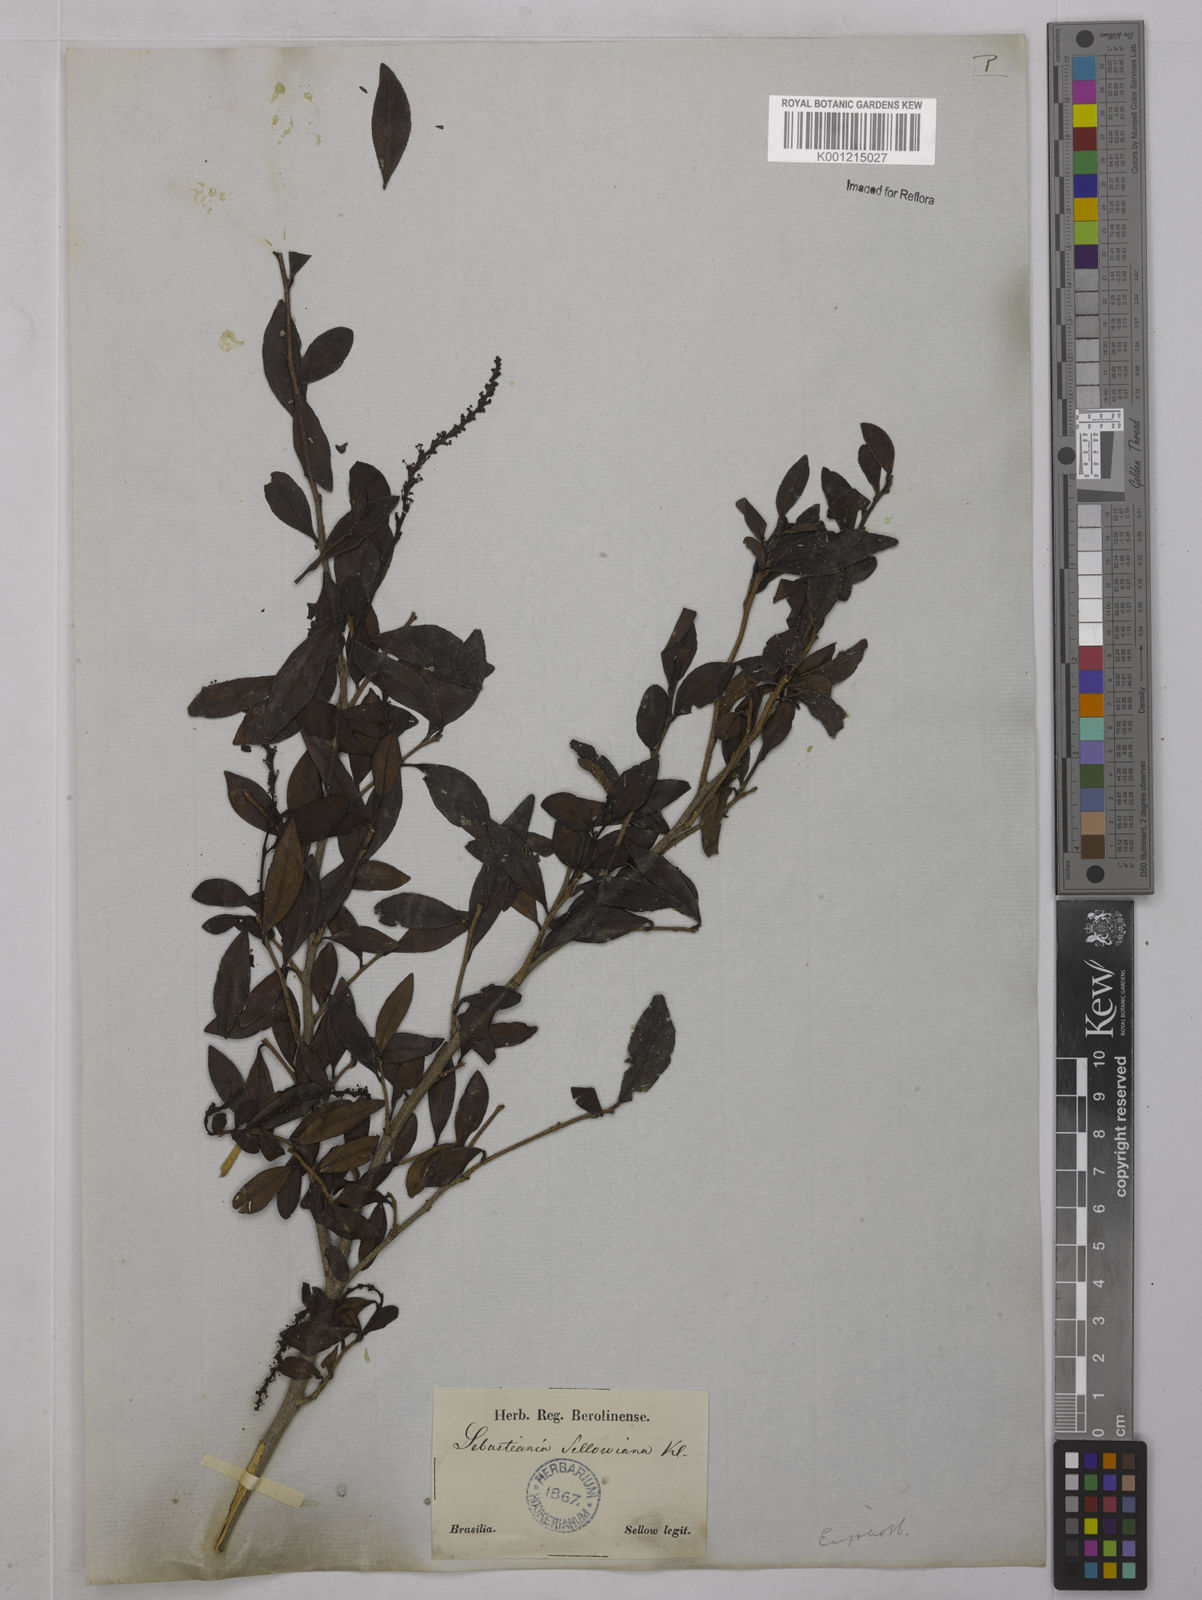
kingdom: Plantae
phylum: Tracheophyta
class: Magnoliopsida
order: Malpighiales
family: Euphorbiaceae
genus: Sebastiania
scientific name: Sebastiania brasiliensis
